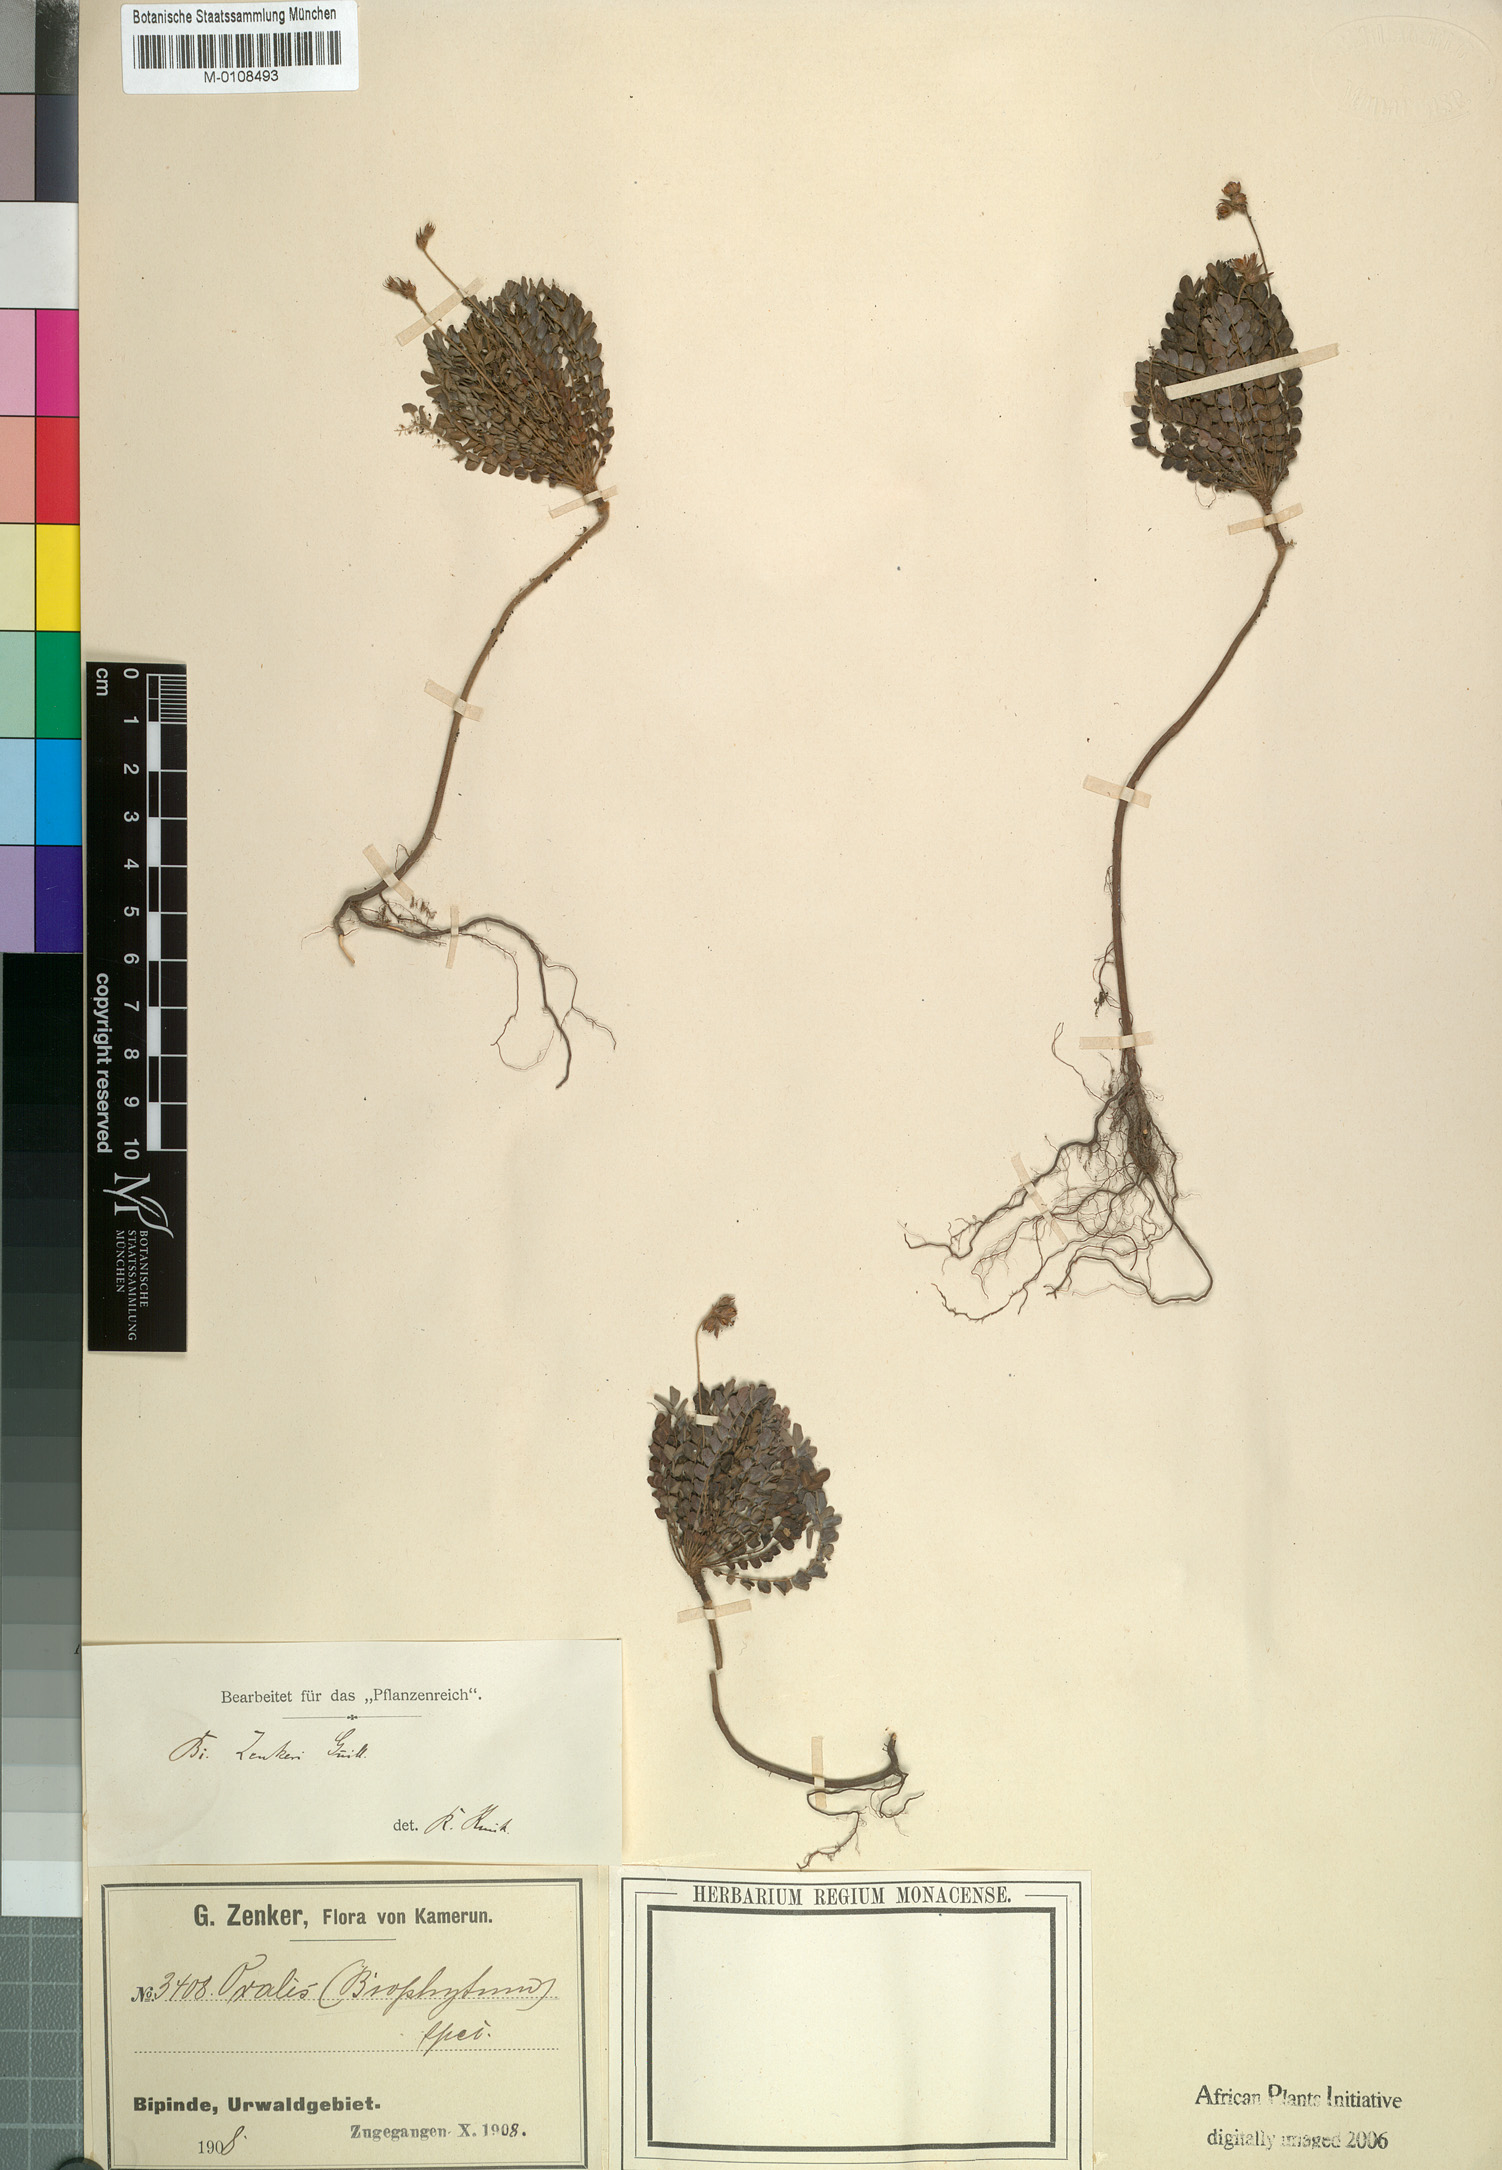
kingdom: Plantae
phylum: Tracheophyta
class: Magnoliopsida
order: Oxalidales
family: Oxalidaceae
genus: Biophytum
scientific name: Biophytum zenkeri
